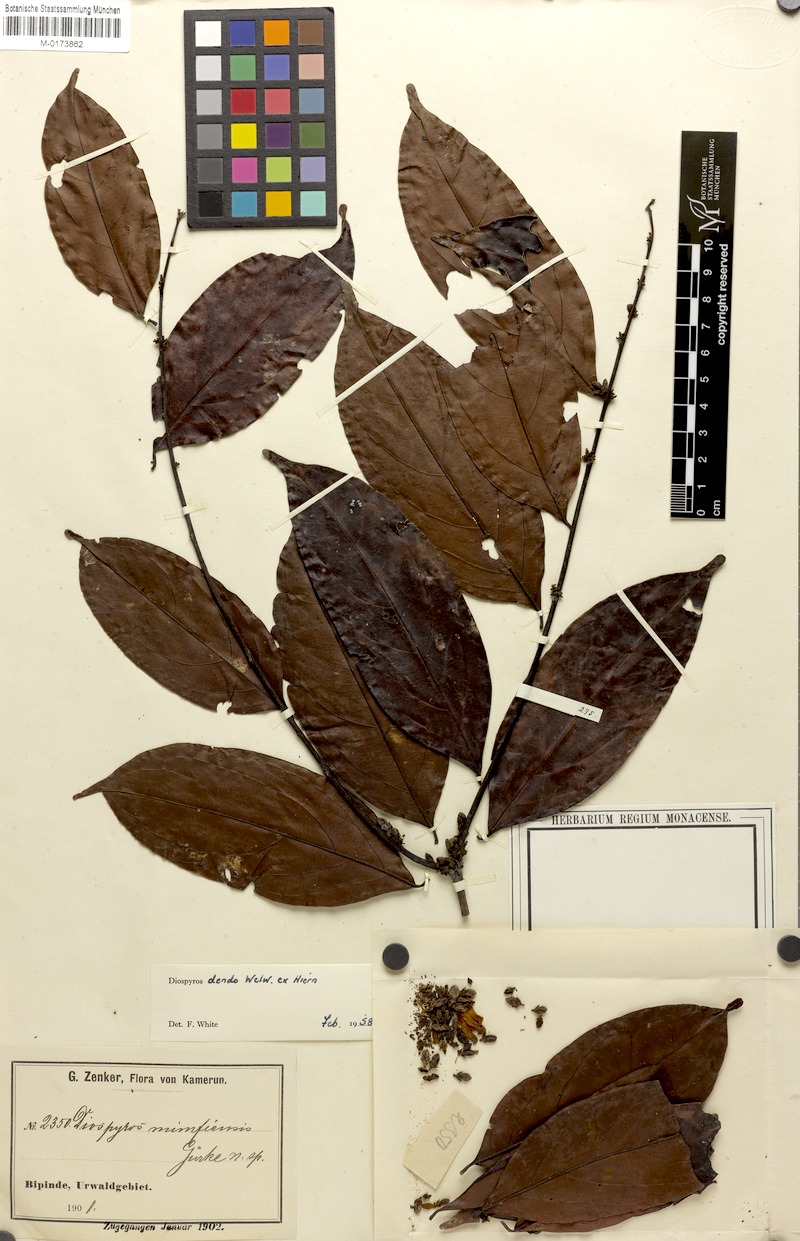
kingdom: Plantae
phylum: Tracheophyta
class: Magnoliopsida
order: Ericales
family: Ebenaceae
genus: Diospyros
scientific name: Diospyros dendo
